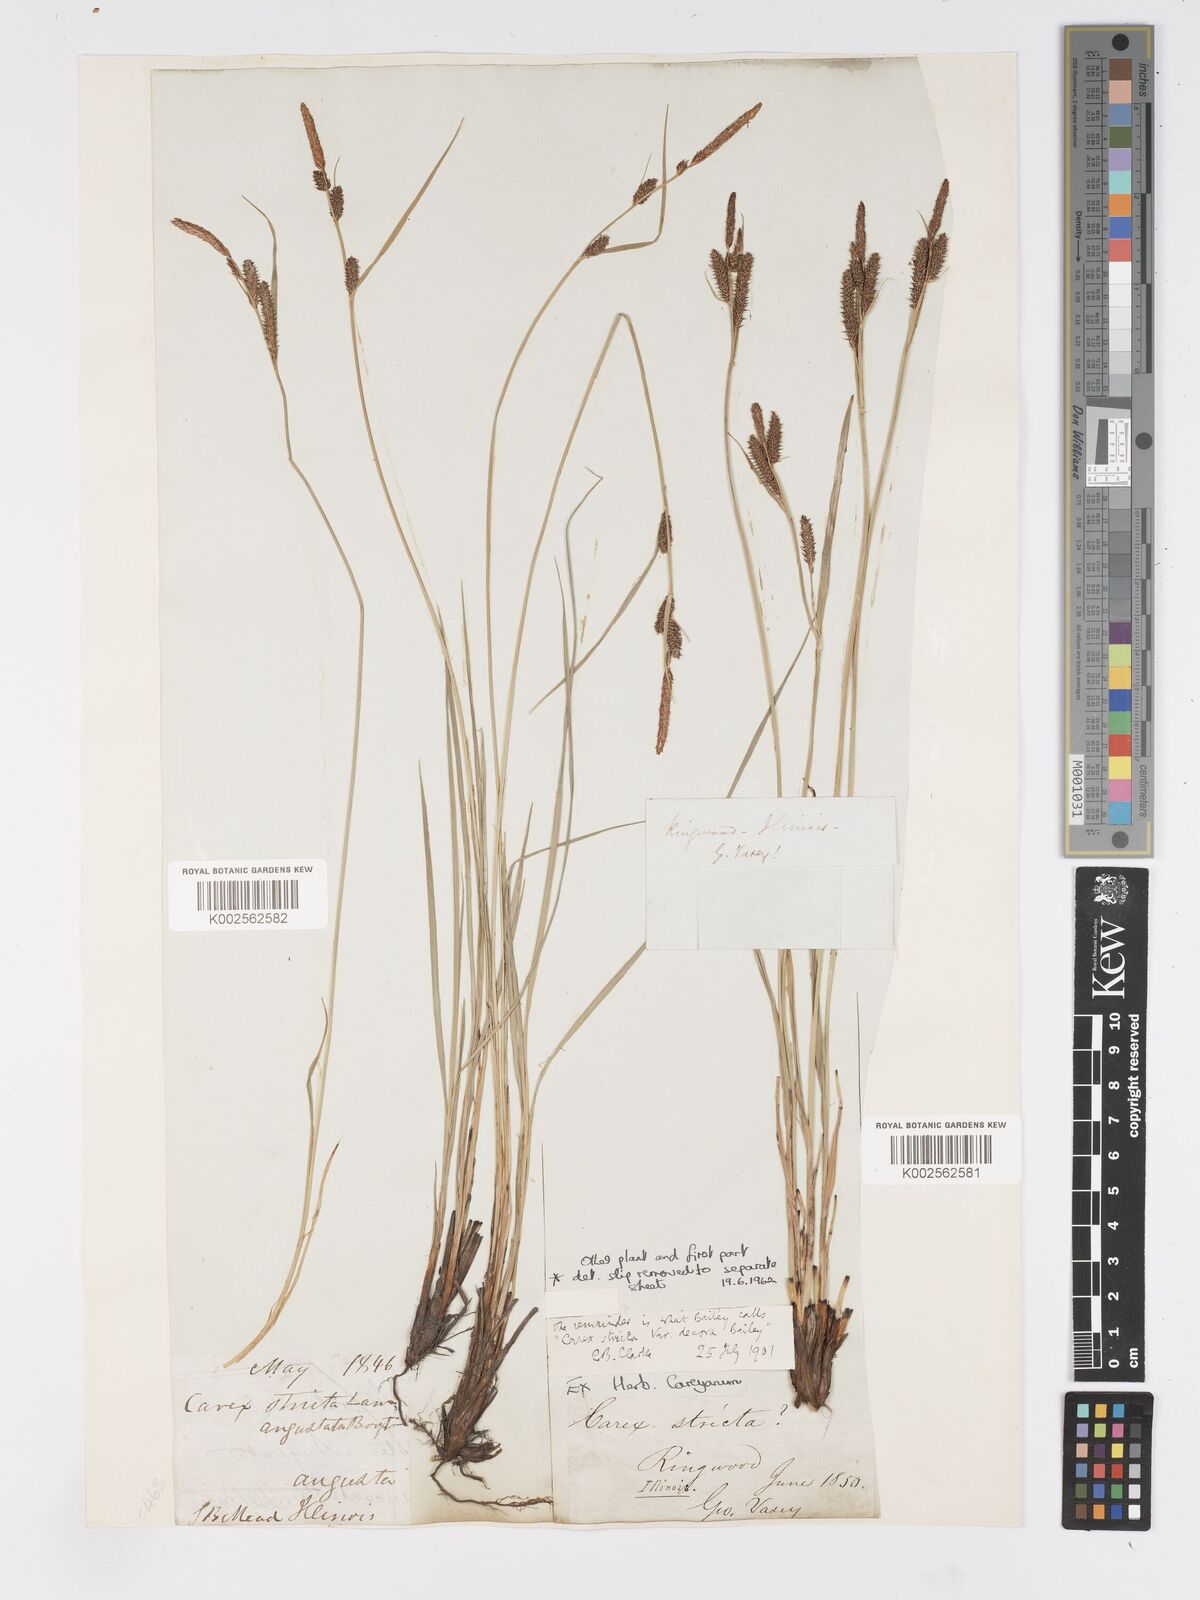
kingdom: Plantae
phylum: Tracheophyta
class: Liliopsida
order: Poales
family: Cyperaceae
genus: Carex
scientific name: Carex haydenii
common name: Hayden's sedge
